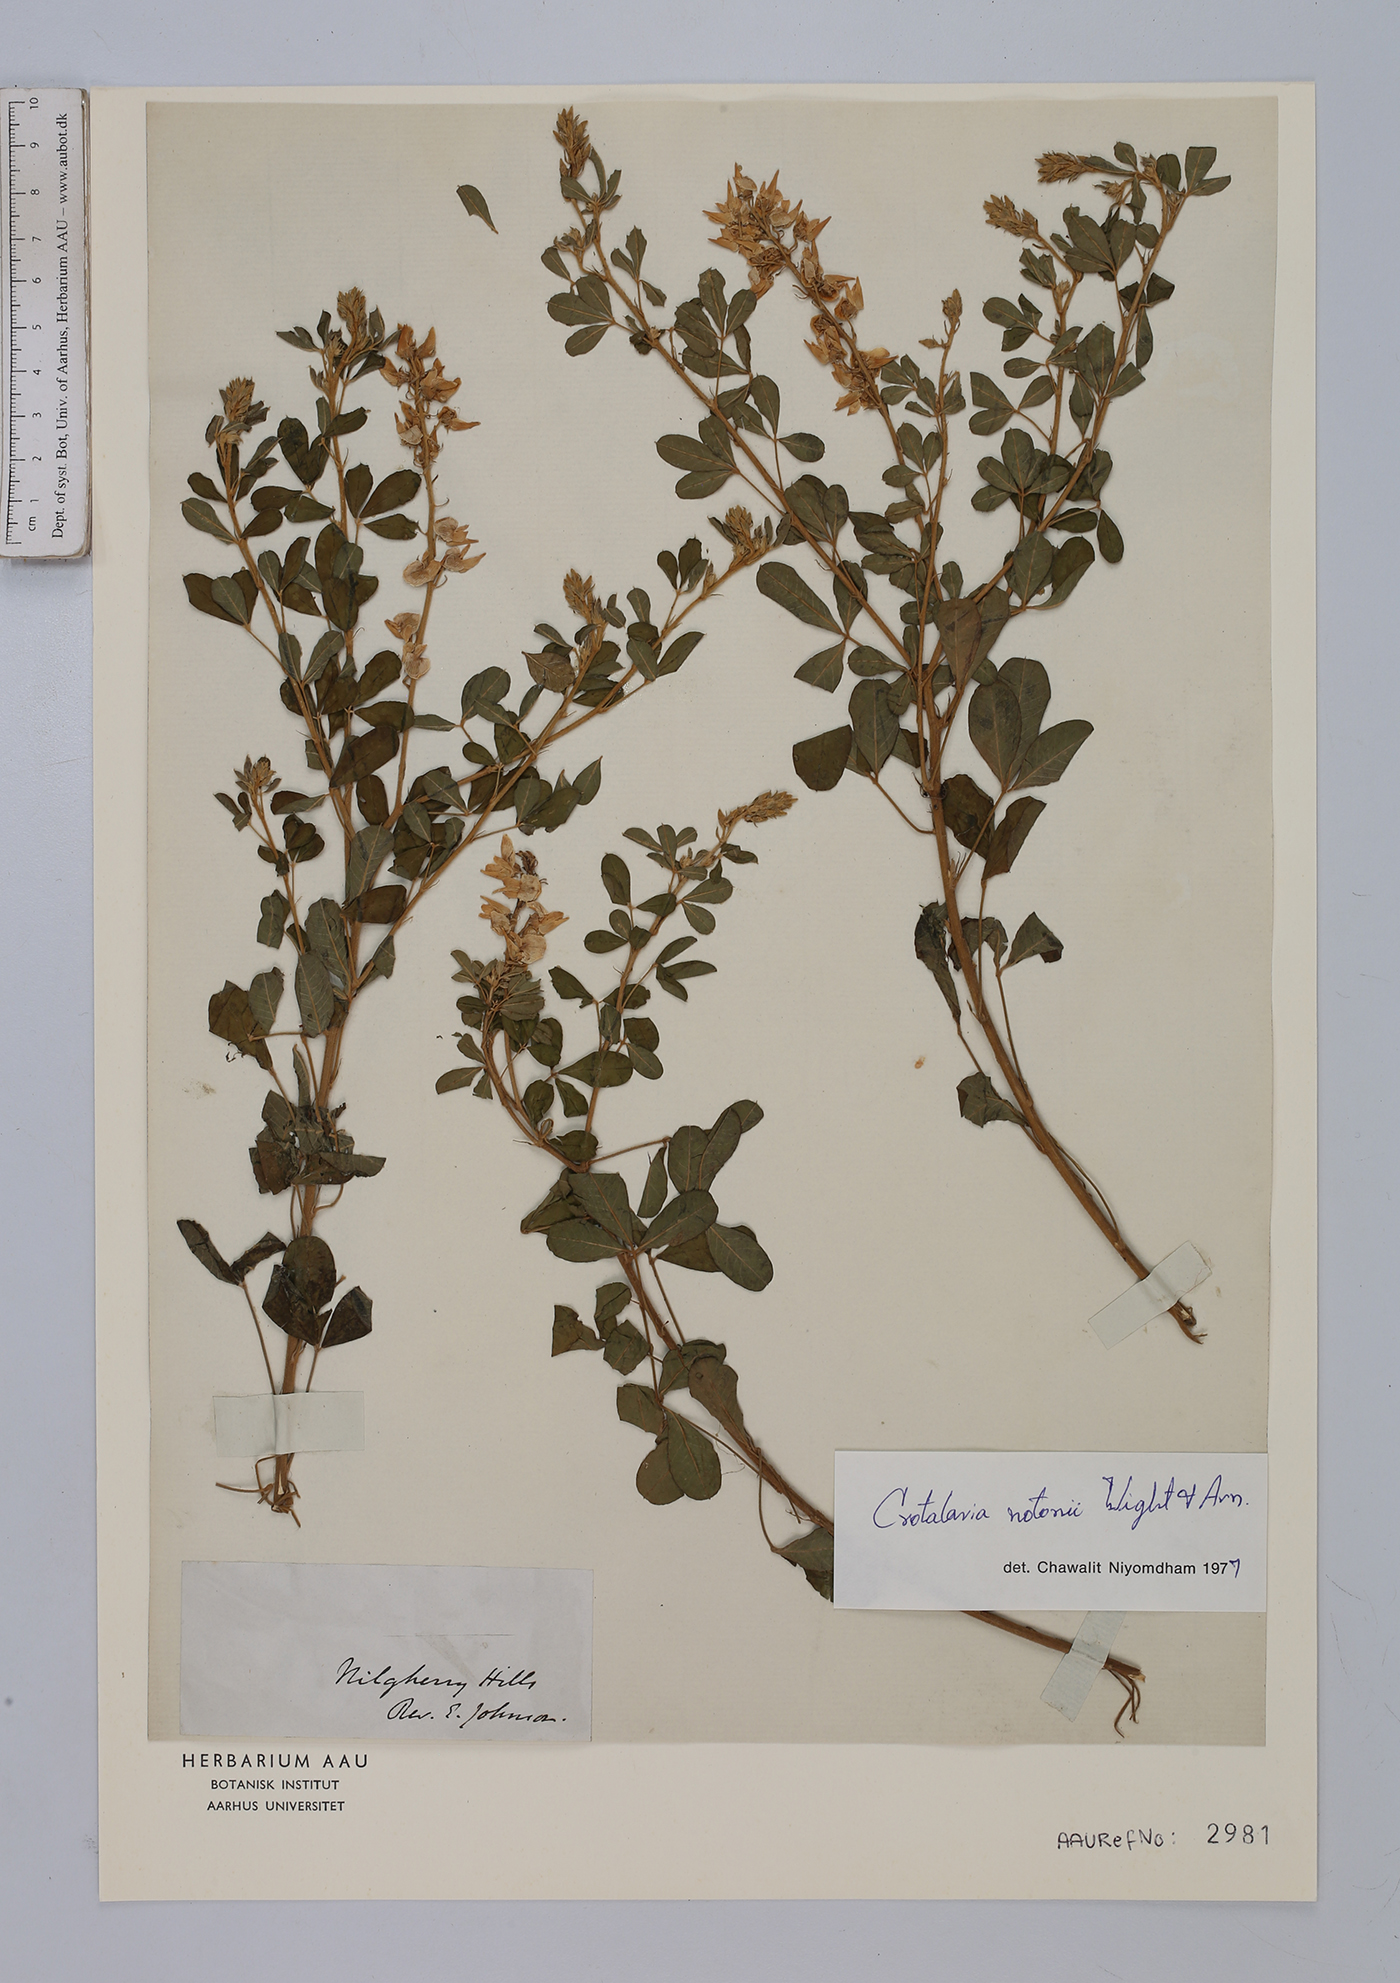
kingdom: Plantae
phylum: Tracheophyta
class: Magnoliopsida
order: Fabales
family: Fabaceae
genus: Crotalaria
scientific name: Crotalaria notonii
